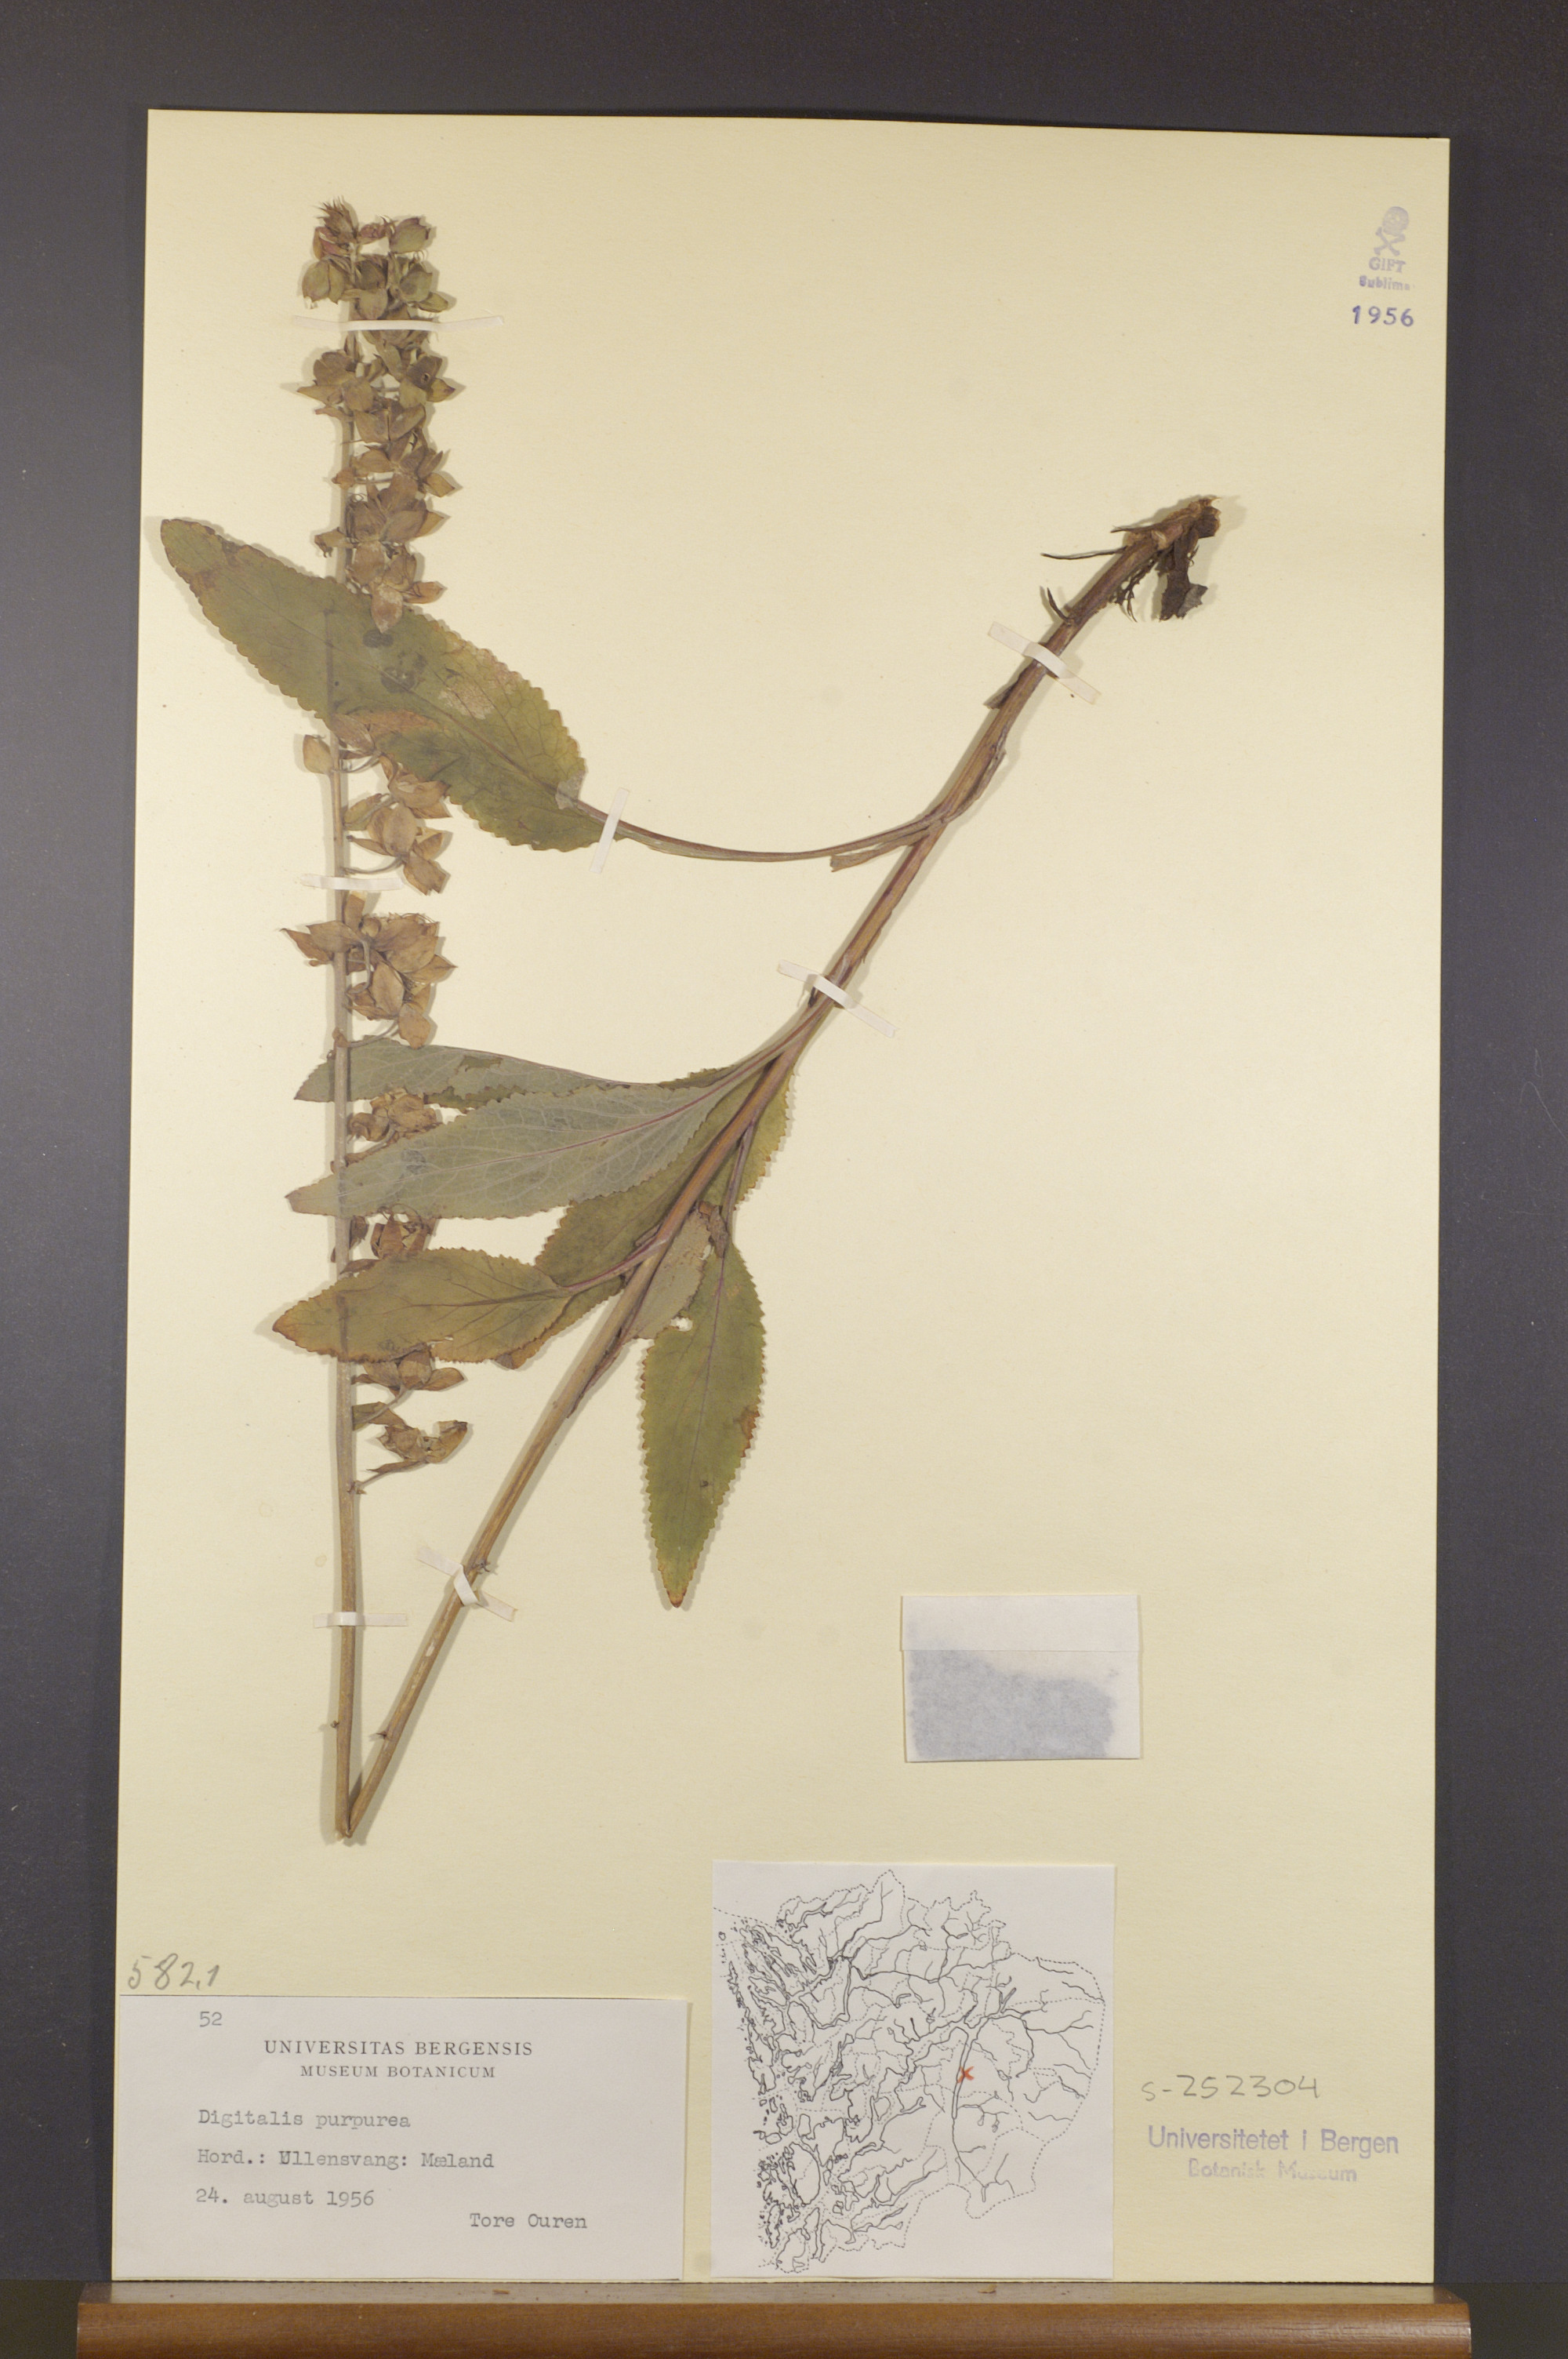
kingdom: Plantae
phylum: Tracheophyta
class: Magnoliopsida
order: Lamiales
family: Plantaginaceae
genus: Digitalis
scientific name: Digitalis purpurea
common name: Foxglove
